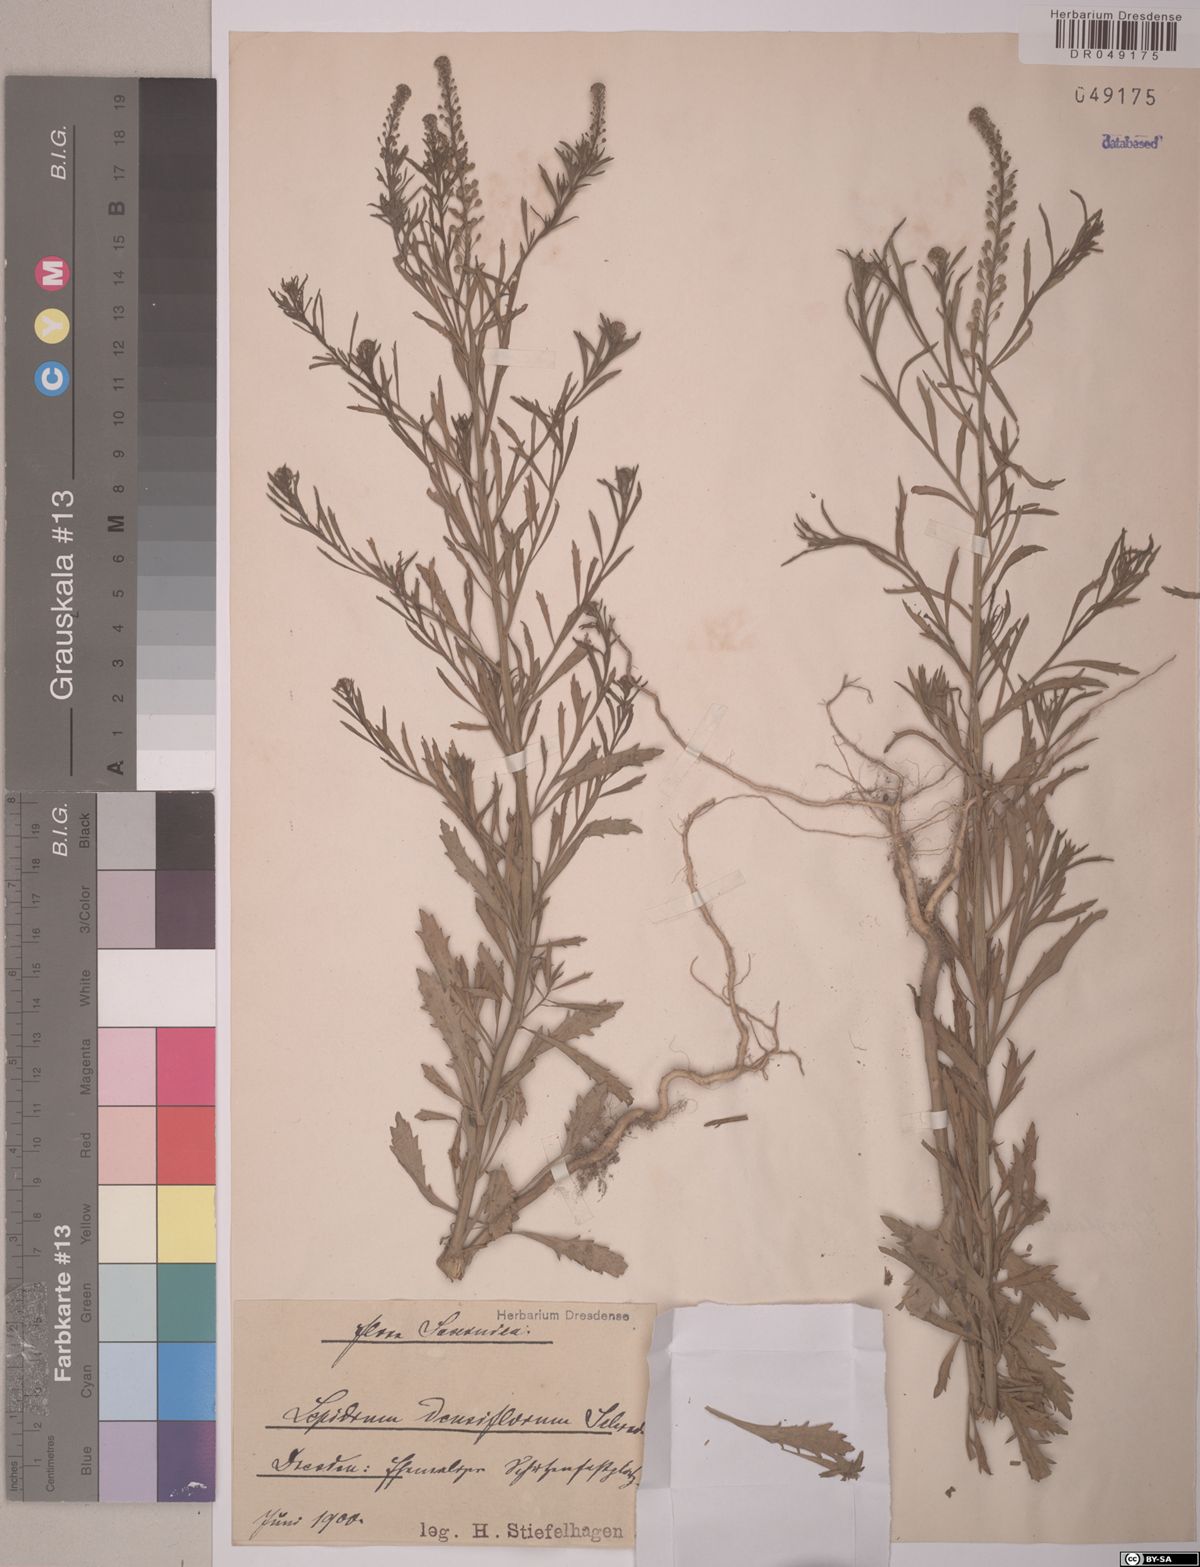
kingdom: Plantae
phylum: Tracheophyta
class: Magnoliopsida
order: Brassicales
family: Brassicaceae
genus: Lepidium
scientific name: Lepidium densiflorum
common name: Miner's pepperwort
